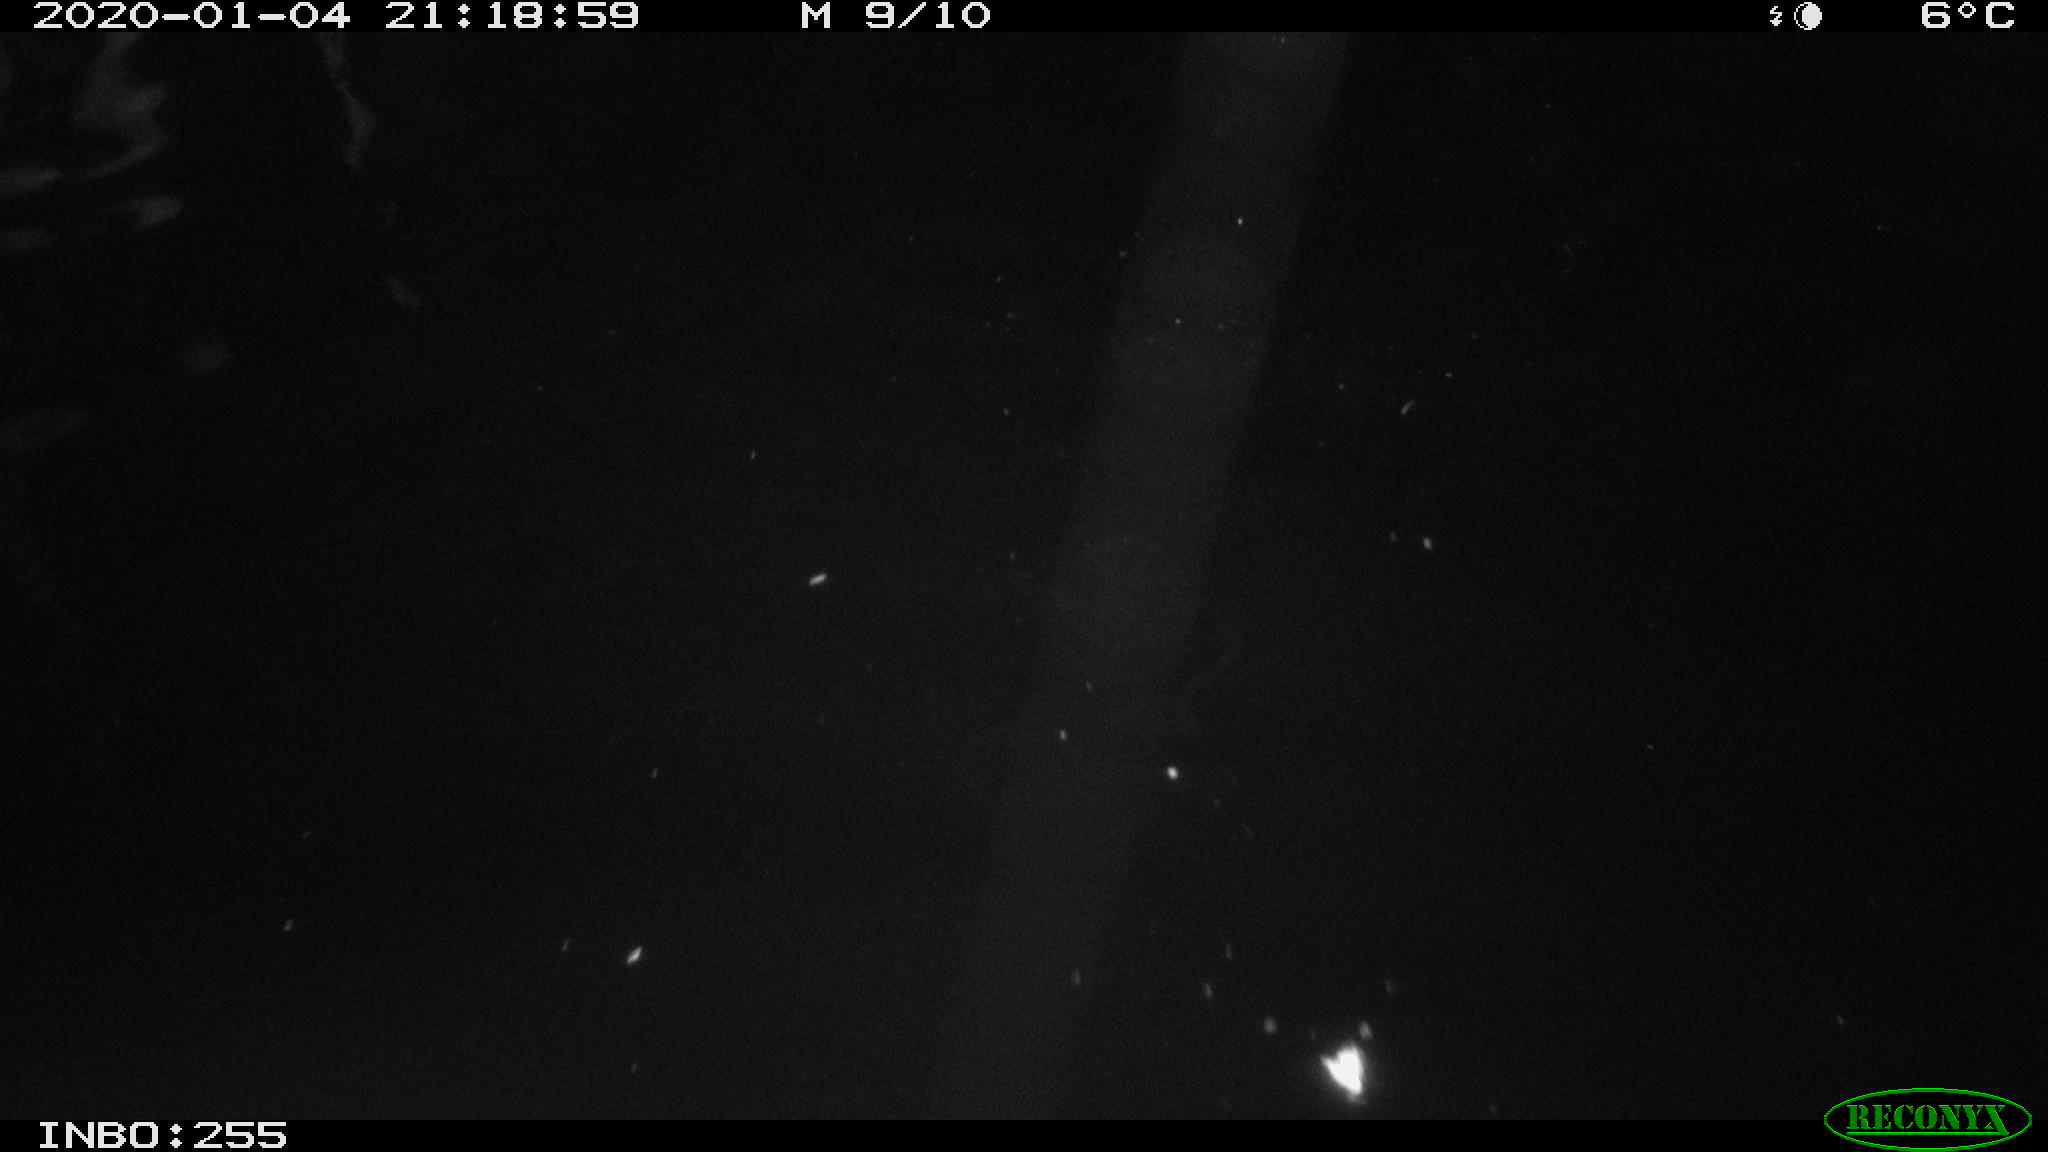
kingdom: Animalia
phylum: Chordata
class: Aves
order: Anseriformes
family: Anatidae
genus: Anas
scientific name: Anas platyrhynchos
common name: Mallard
